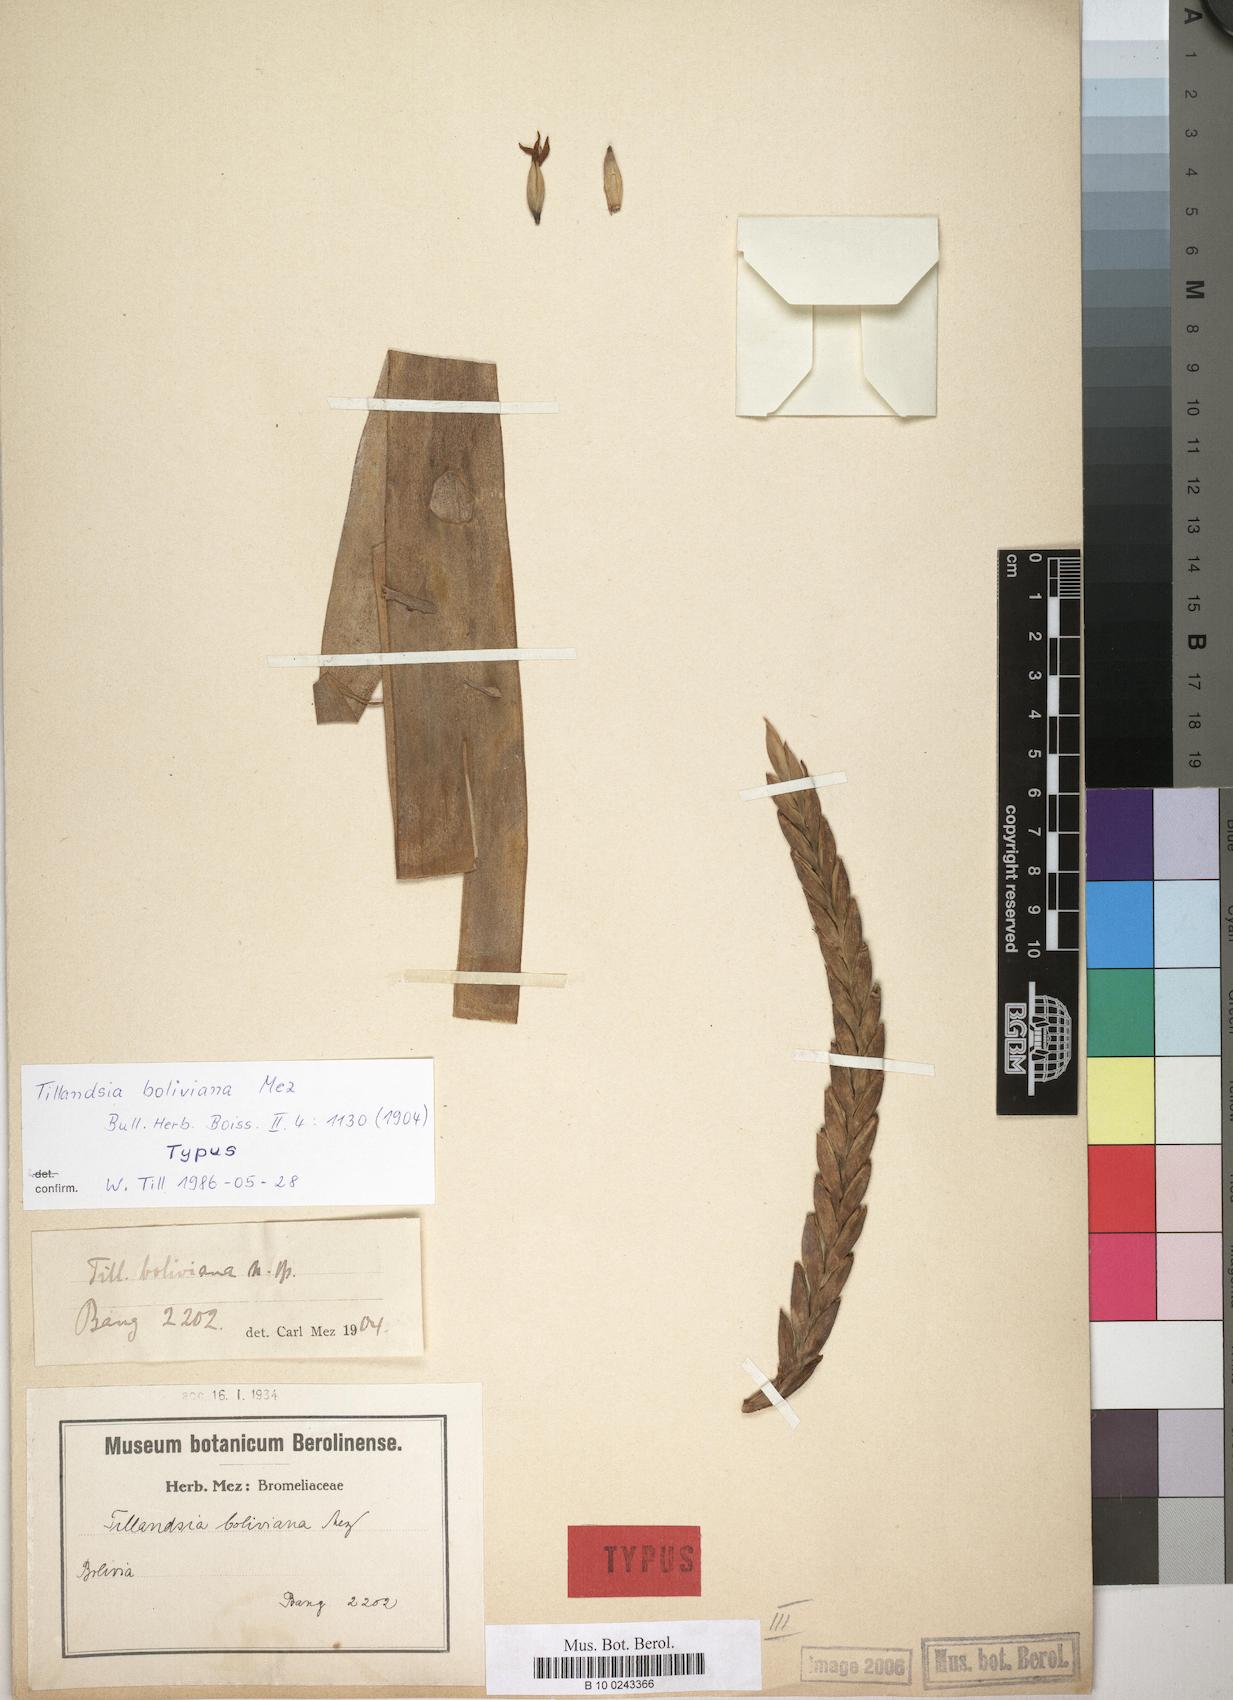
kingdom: Plantae
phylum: Tracheophyta
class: Liliopsida
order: Poales
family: Bromeliaceae
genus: Tillandsia
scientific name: Tillandsia boliviana
